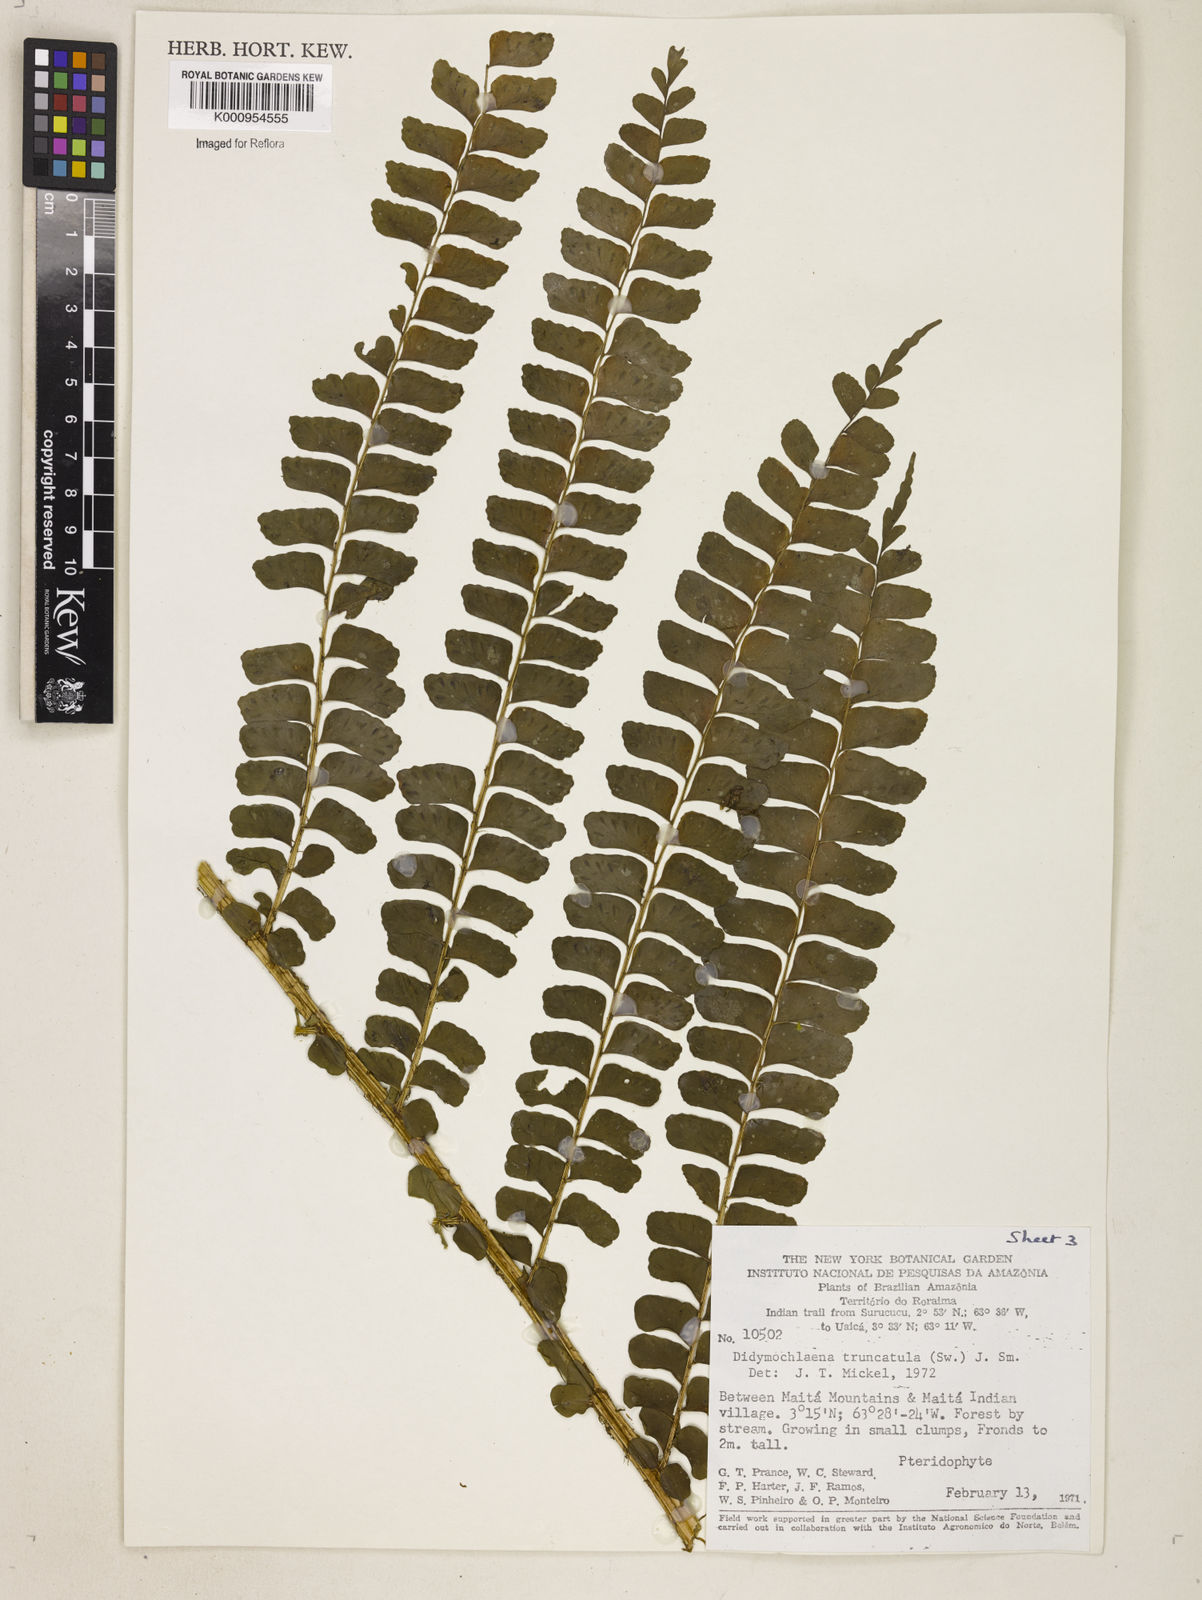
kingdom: Plantae
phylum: Tracheophyta
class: Polypodiopsida
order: Polypodiales
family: Didymochlaenaceae
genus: Didymochlaena
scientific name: Didymochlaena truncatula
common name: Mahogany fern
